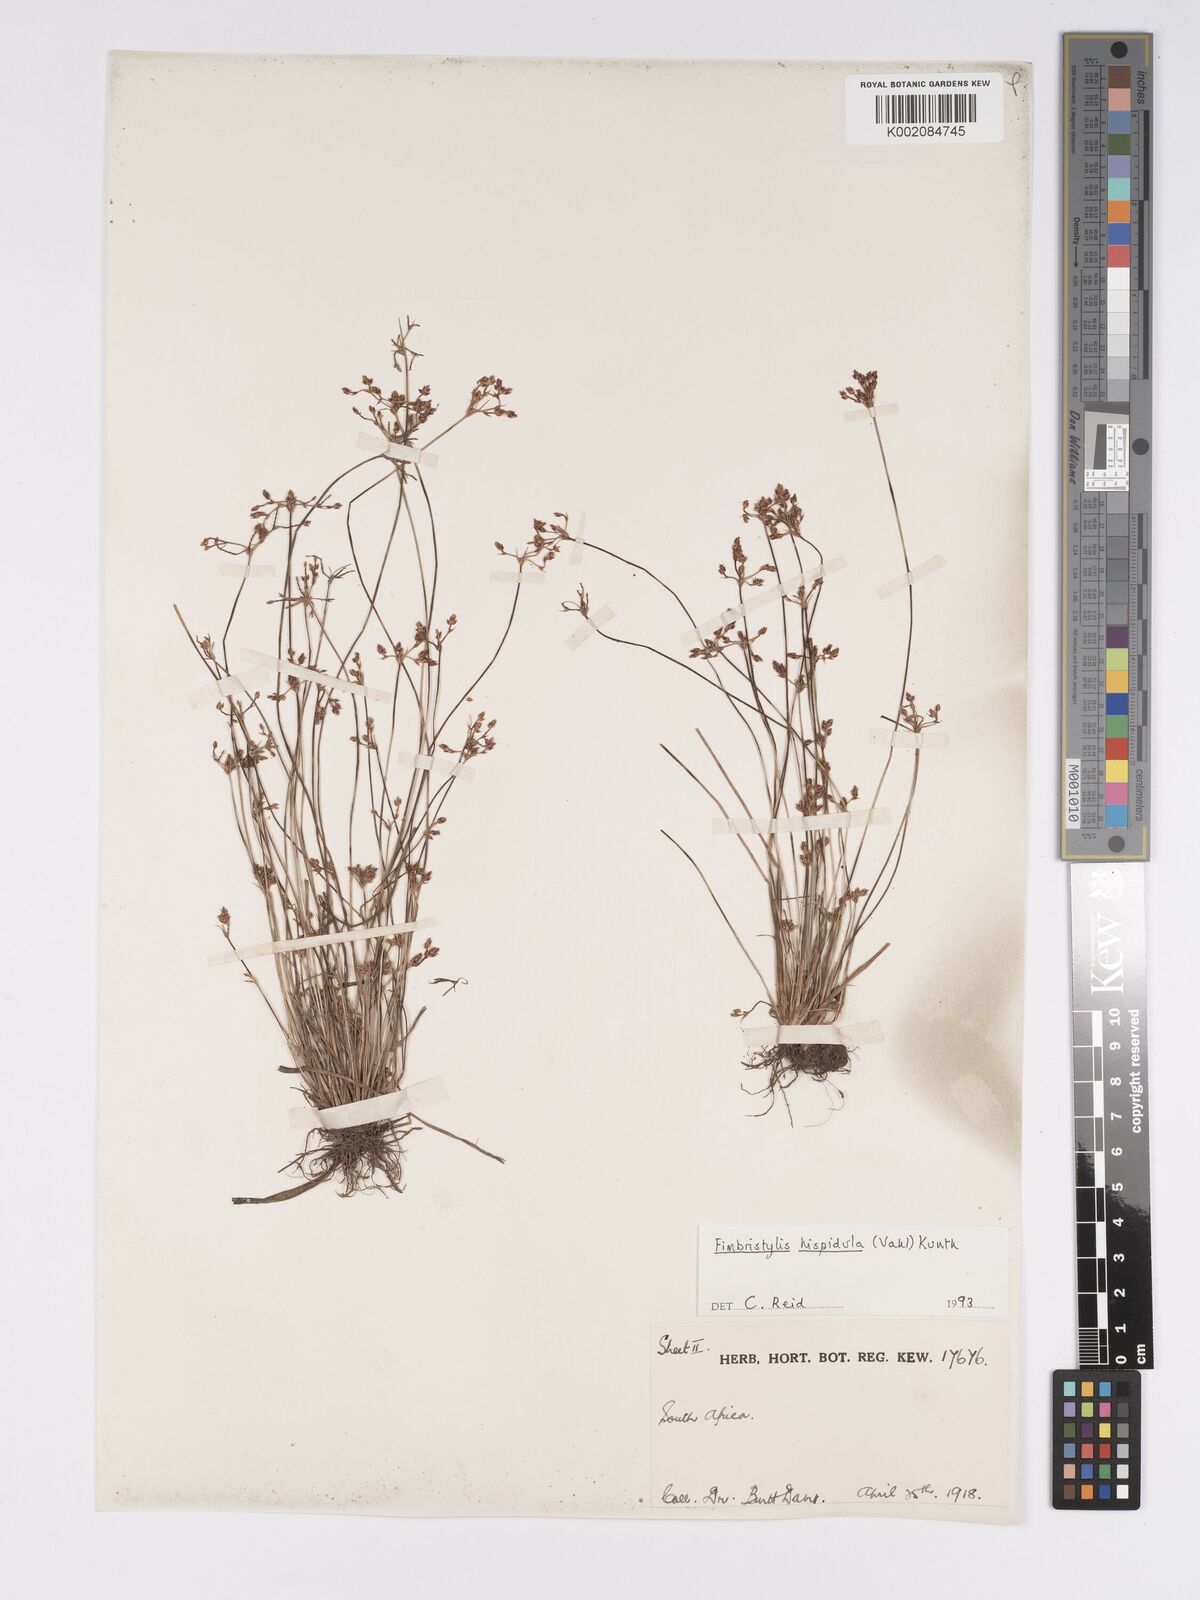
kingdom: Plantae
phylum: Tracheophyta
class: Liliopsida
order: Poales
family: Cyperaceae
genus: Bulbostylis
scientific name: Bulbostylis
